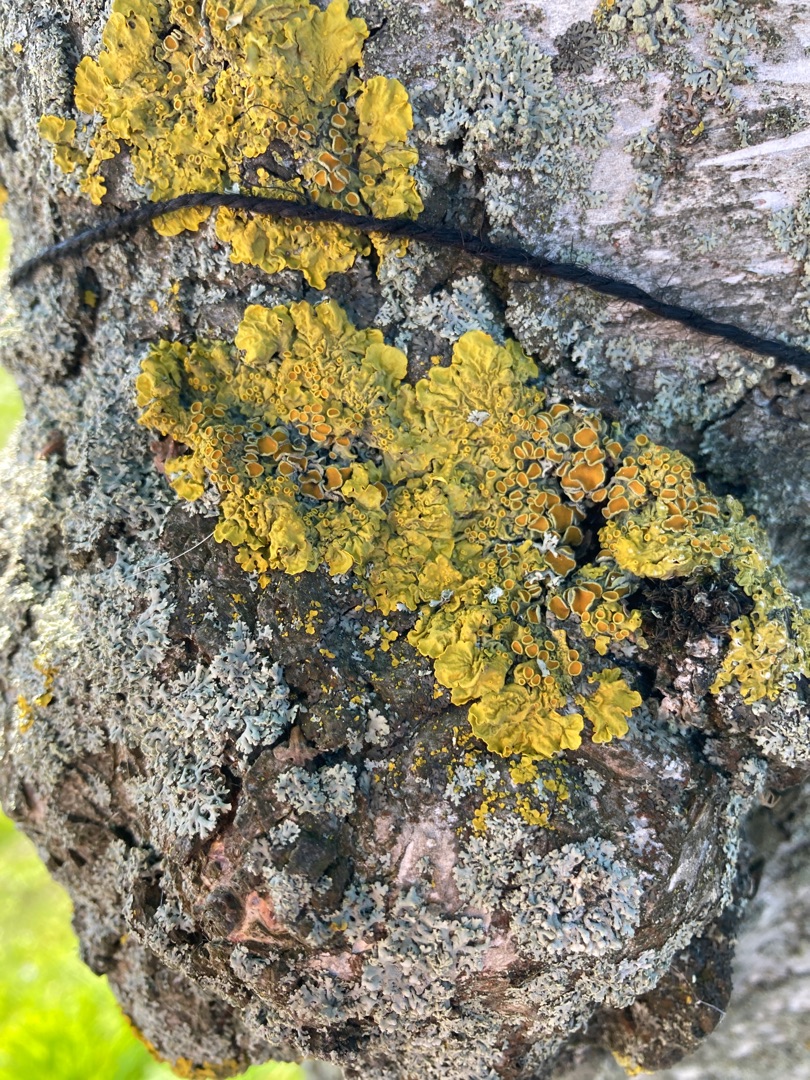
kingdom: Fungi
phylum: Ascomycota
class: Lecanoromycetes
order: Teloschistales
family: Teloschistaceae
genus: Xanthoria
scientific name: Xanthoria parietina
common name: Almindelig væggelav
